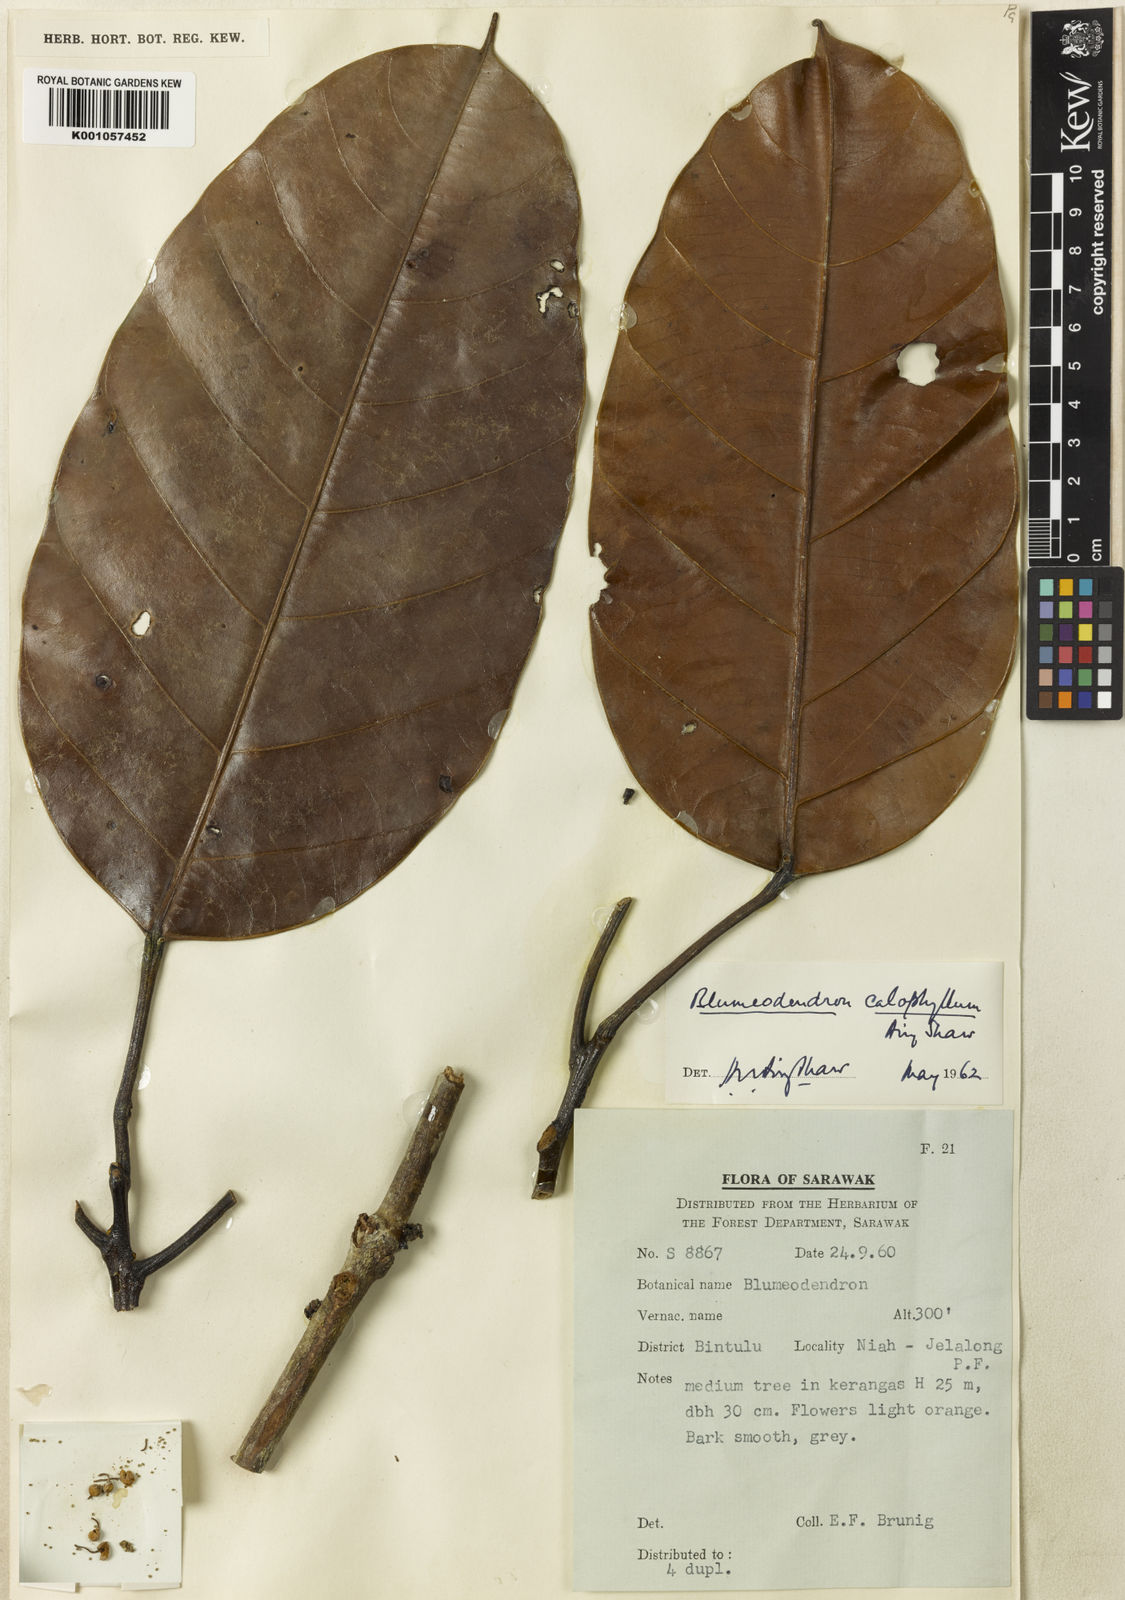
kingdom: Plantae
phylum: Tracheophyta
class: Magnoliopsida
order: Malpighiales
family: Euphorbiaceae
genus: Blumeodendron
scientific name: Blumeodendron subrotundifolium
